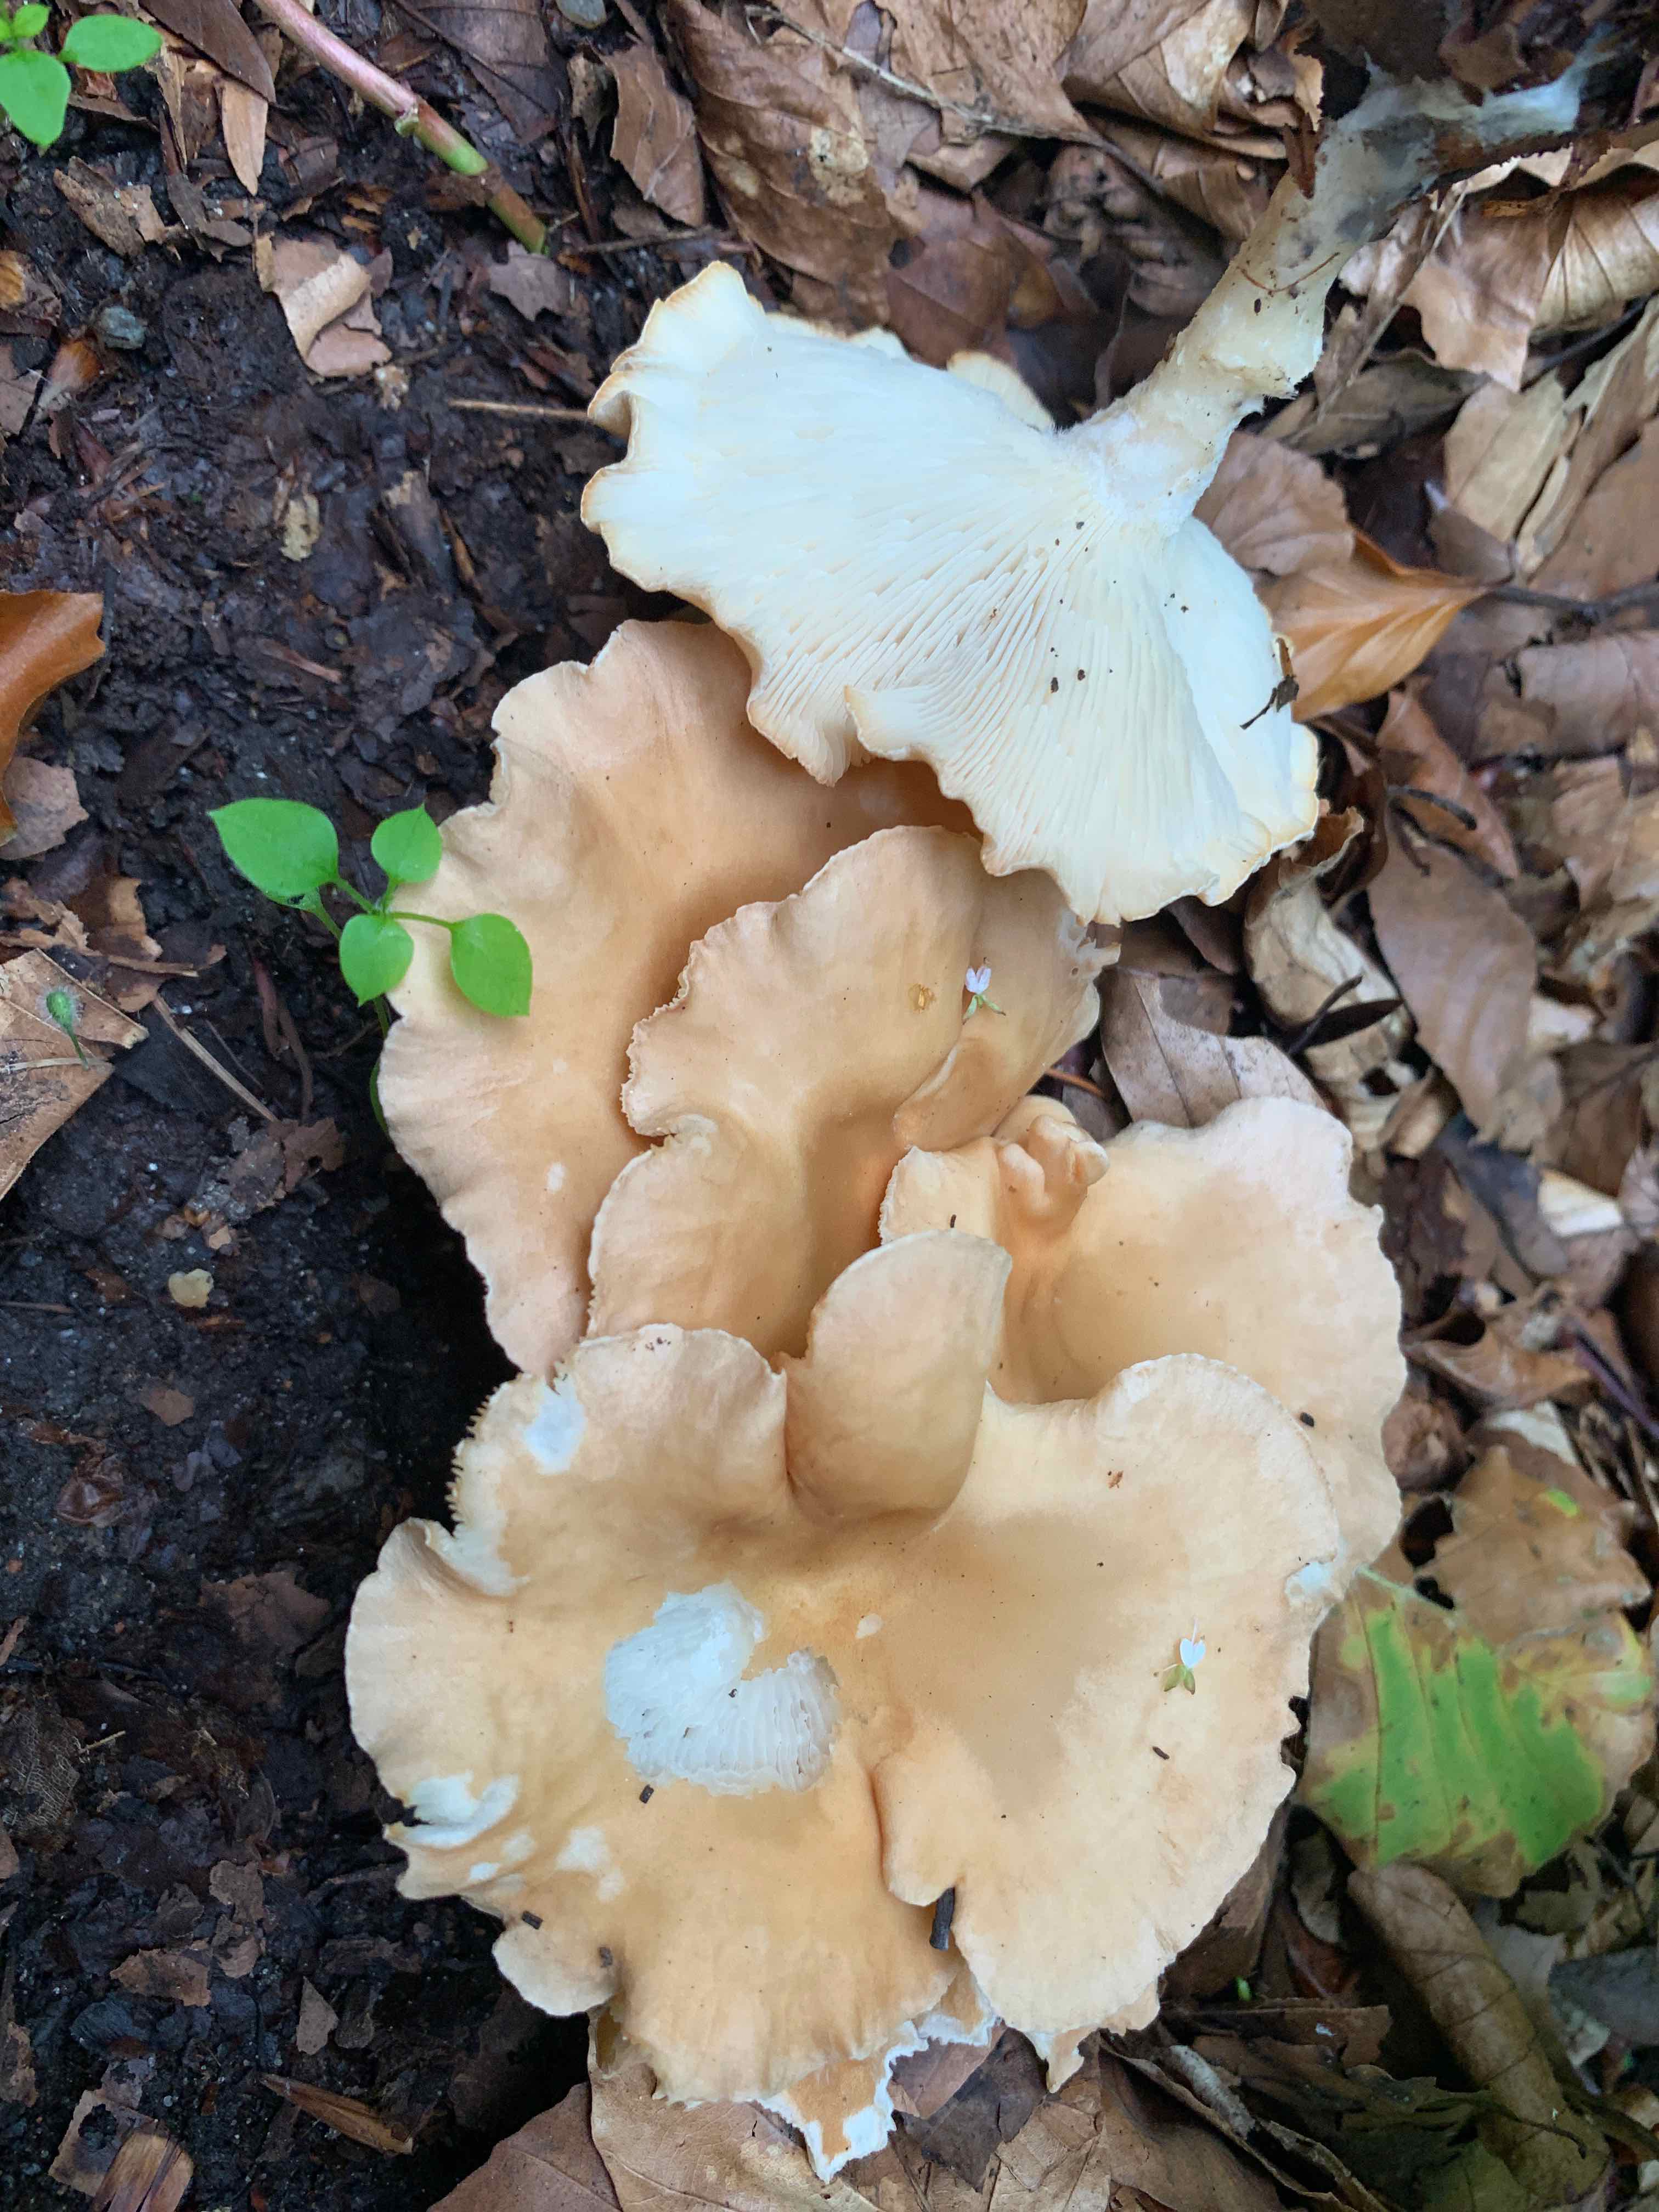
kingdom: Fungi
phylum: Basidiomycota
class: Agaricomycetes
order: Agaricales
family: Tricholomataceae
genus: Infundibulicybe
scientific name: Infundibulicybe gibba
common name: almindelig tragthat
